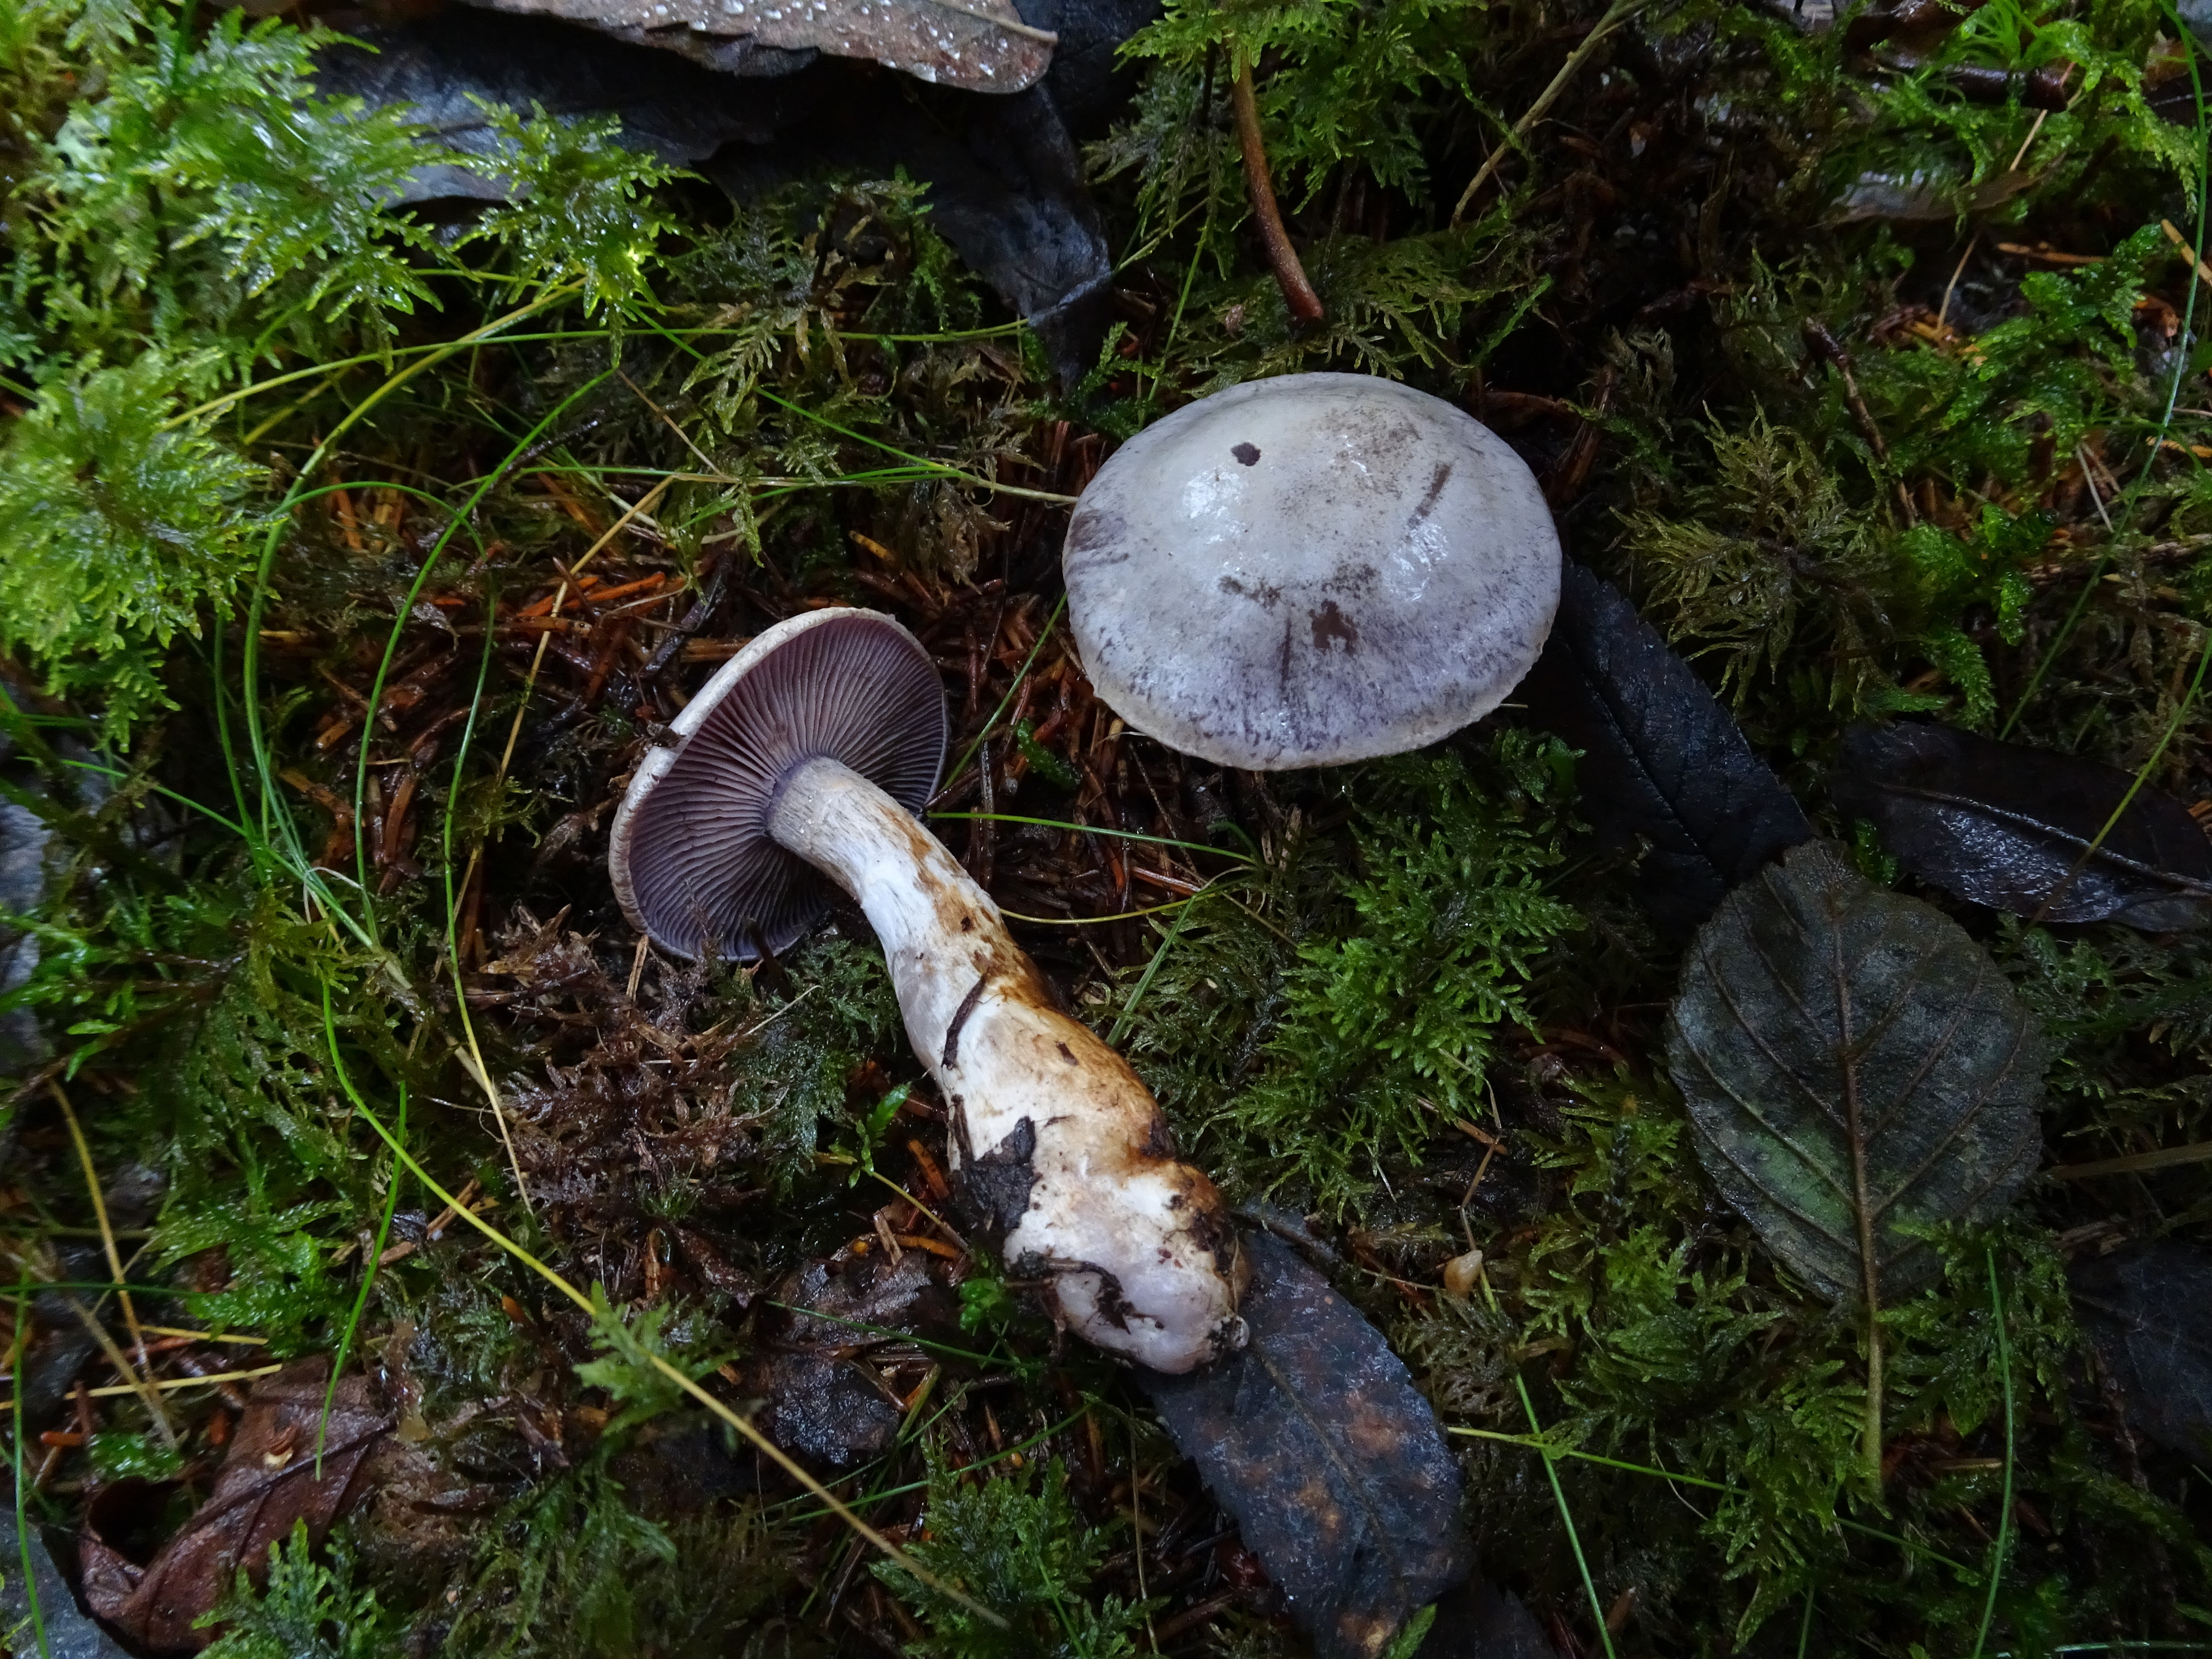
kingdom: Fungi
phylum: Basidiomycota
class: Agaricomycetes
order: Agaricales
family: Cortinariaceae
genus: Cortinarius
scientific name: Cortinarius camphoratus
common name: Goatcheese webcap
